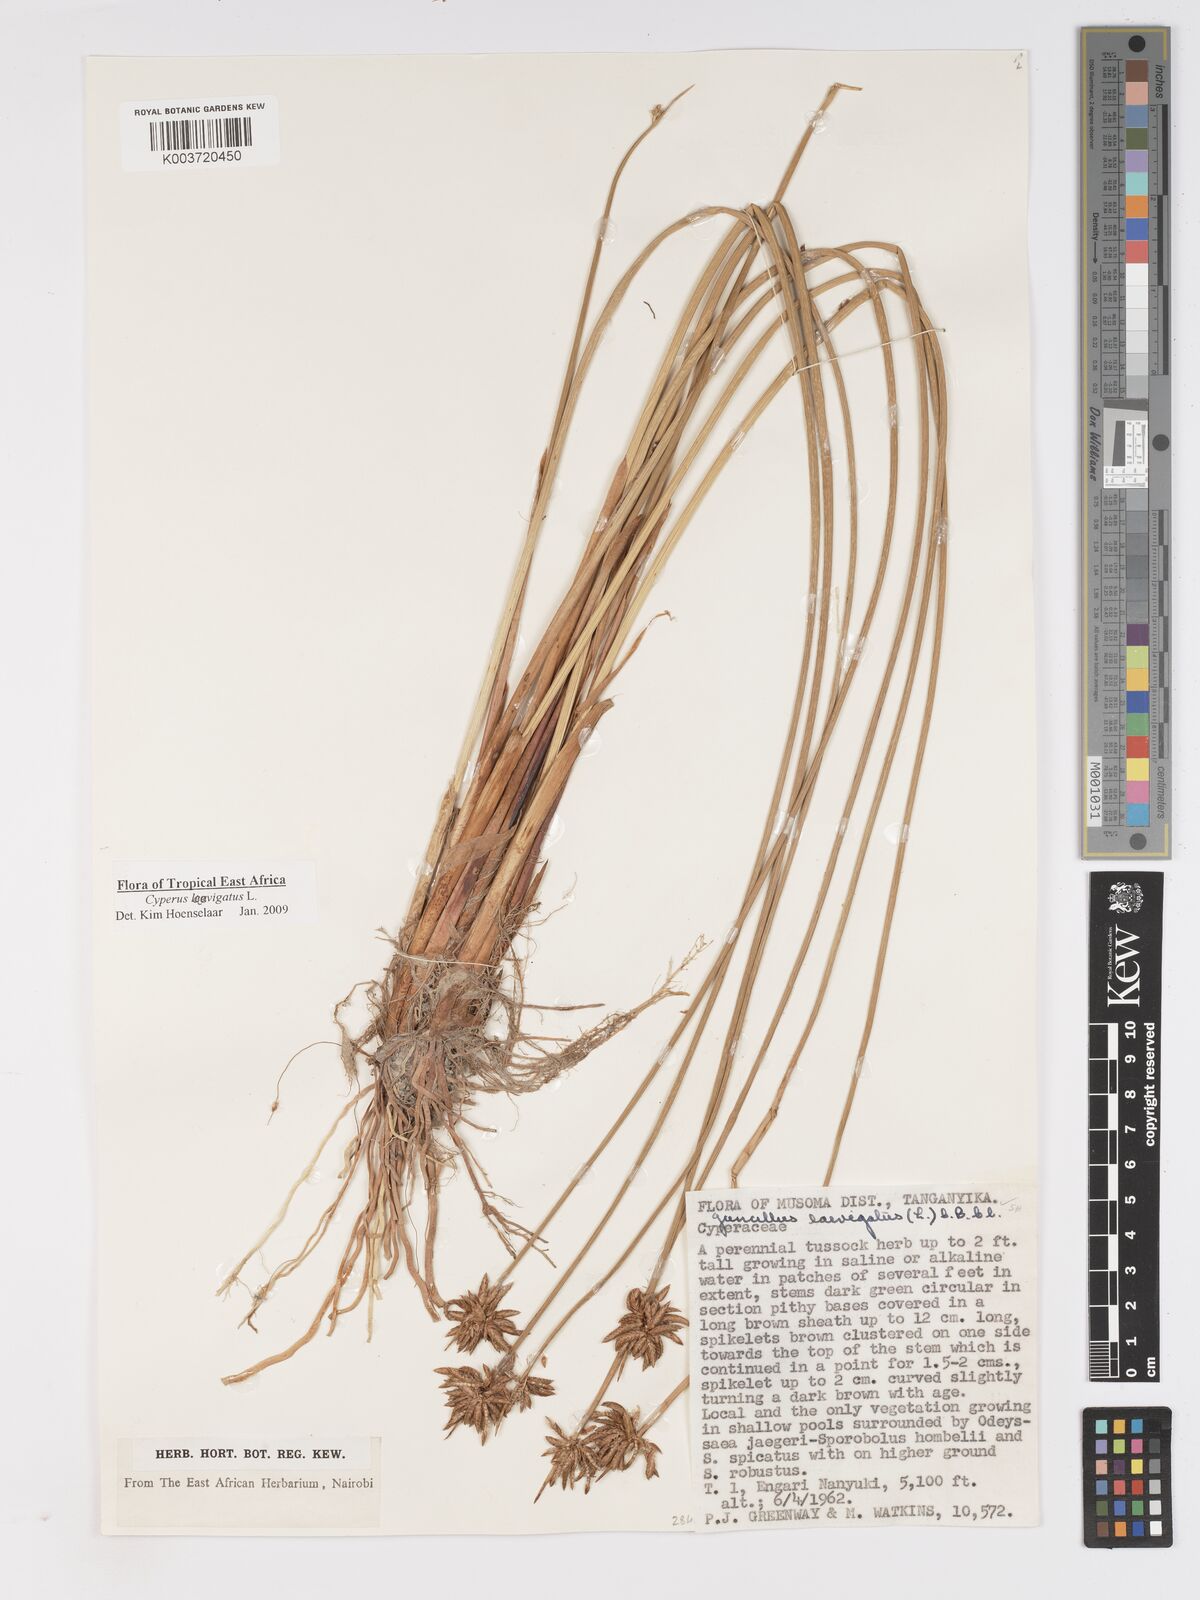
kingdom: Plantae
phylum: Tracheophyta
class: Liliopsida
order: Poales
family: Cyperaceae
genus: Cyperus
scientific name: Cyperus laevigatus
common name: Smooth flat sedge
